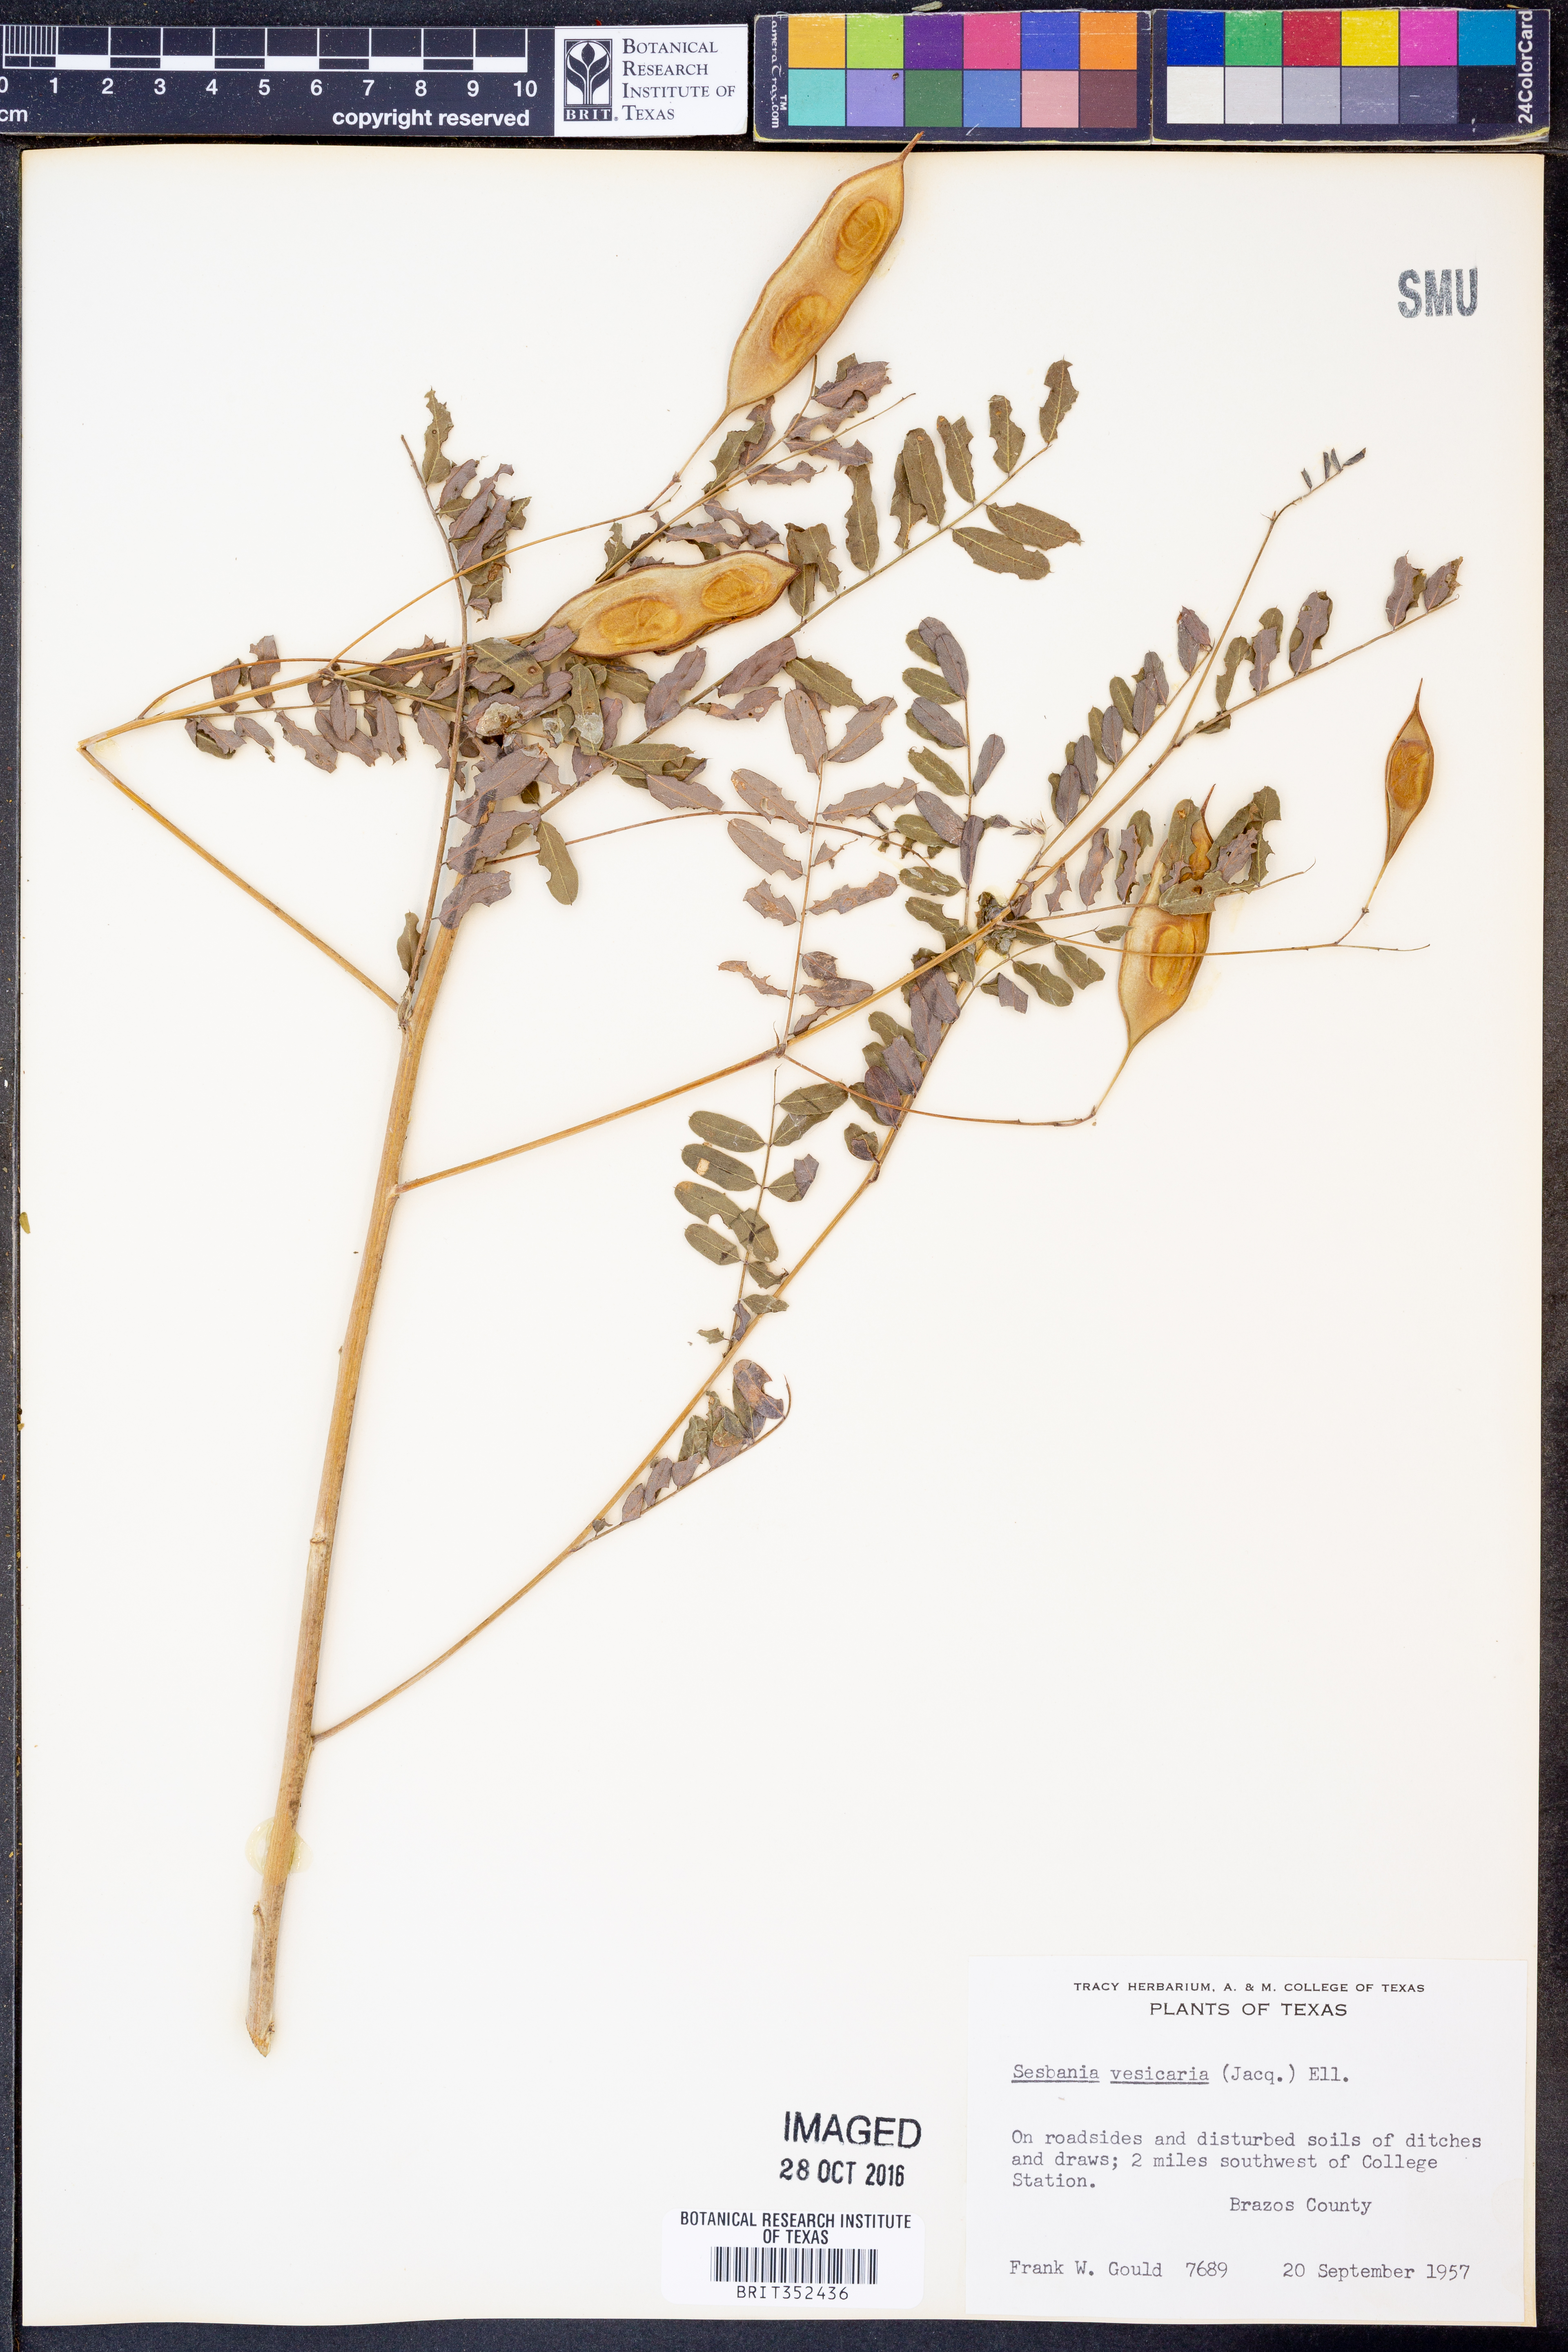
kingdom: Plantae
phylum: Tracheophyta
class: Magnoliopsida
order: Fabales
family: Fabaceae
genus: Sesbania
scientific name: Sesbania vesicaria
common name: Bagpod
